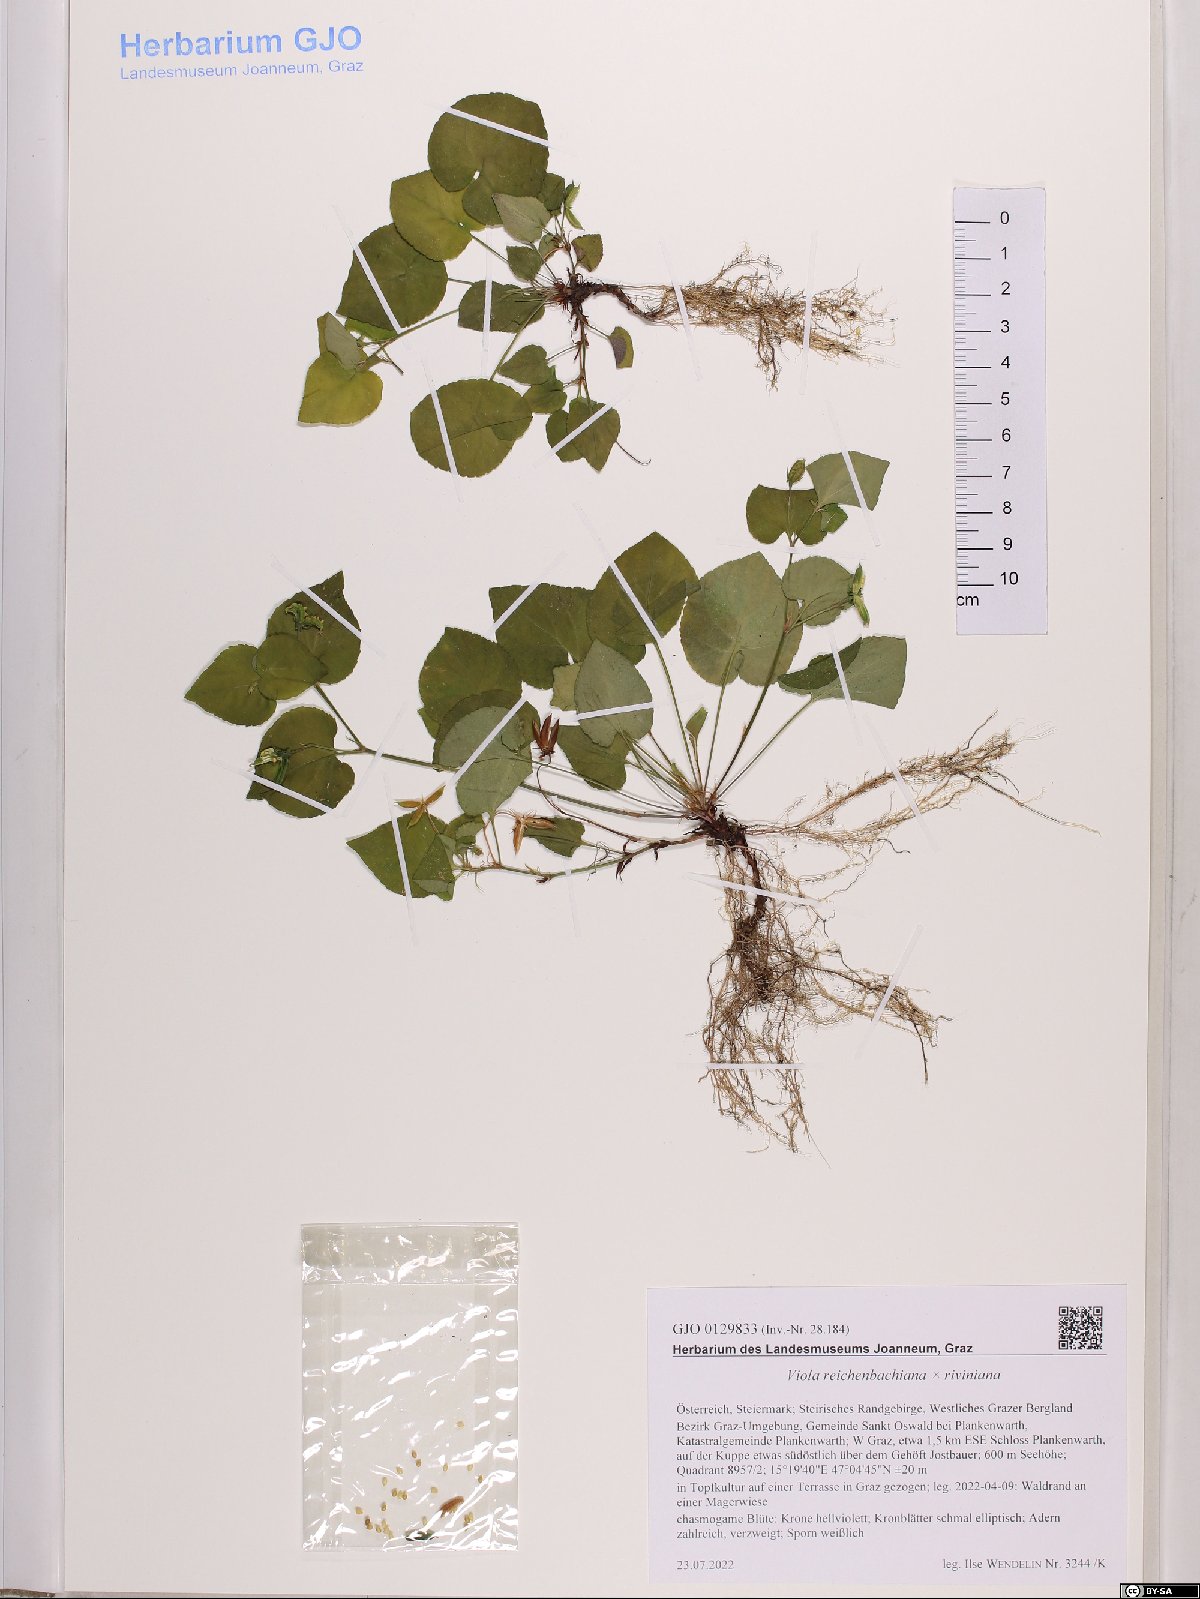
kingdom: Plantae
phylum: Tracheophyta
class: Magnoliopsida
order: Malpighiales
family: Violaceae
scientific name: Violaceae
